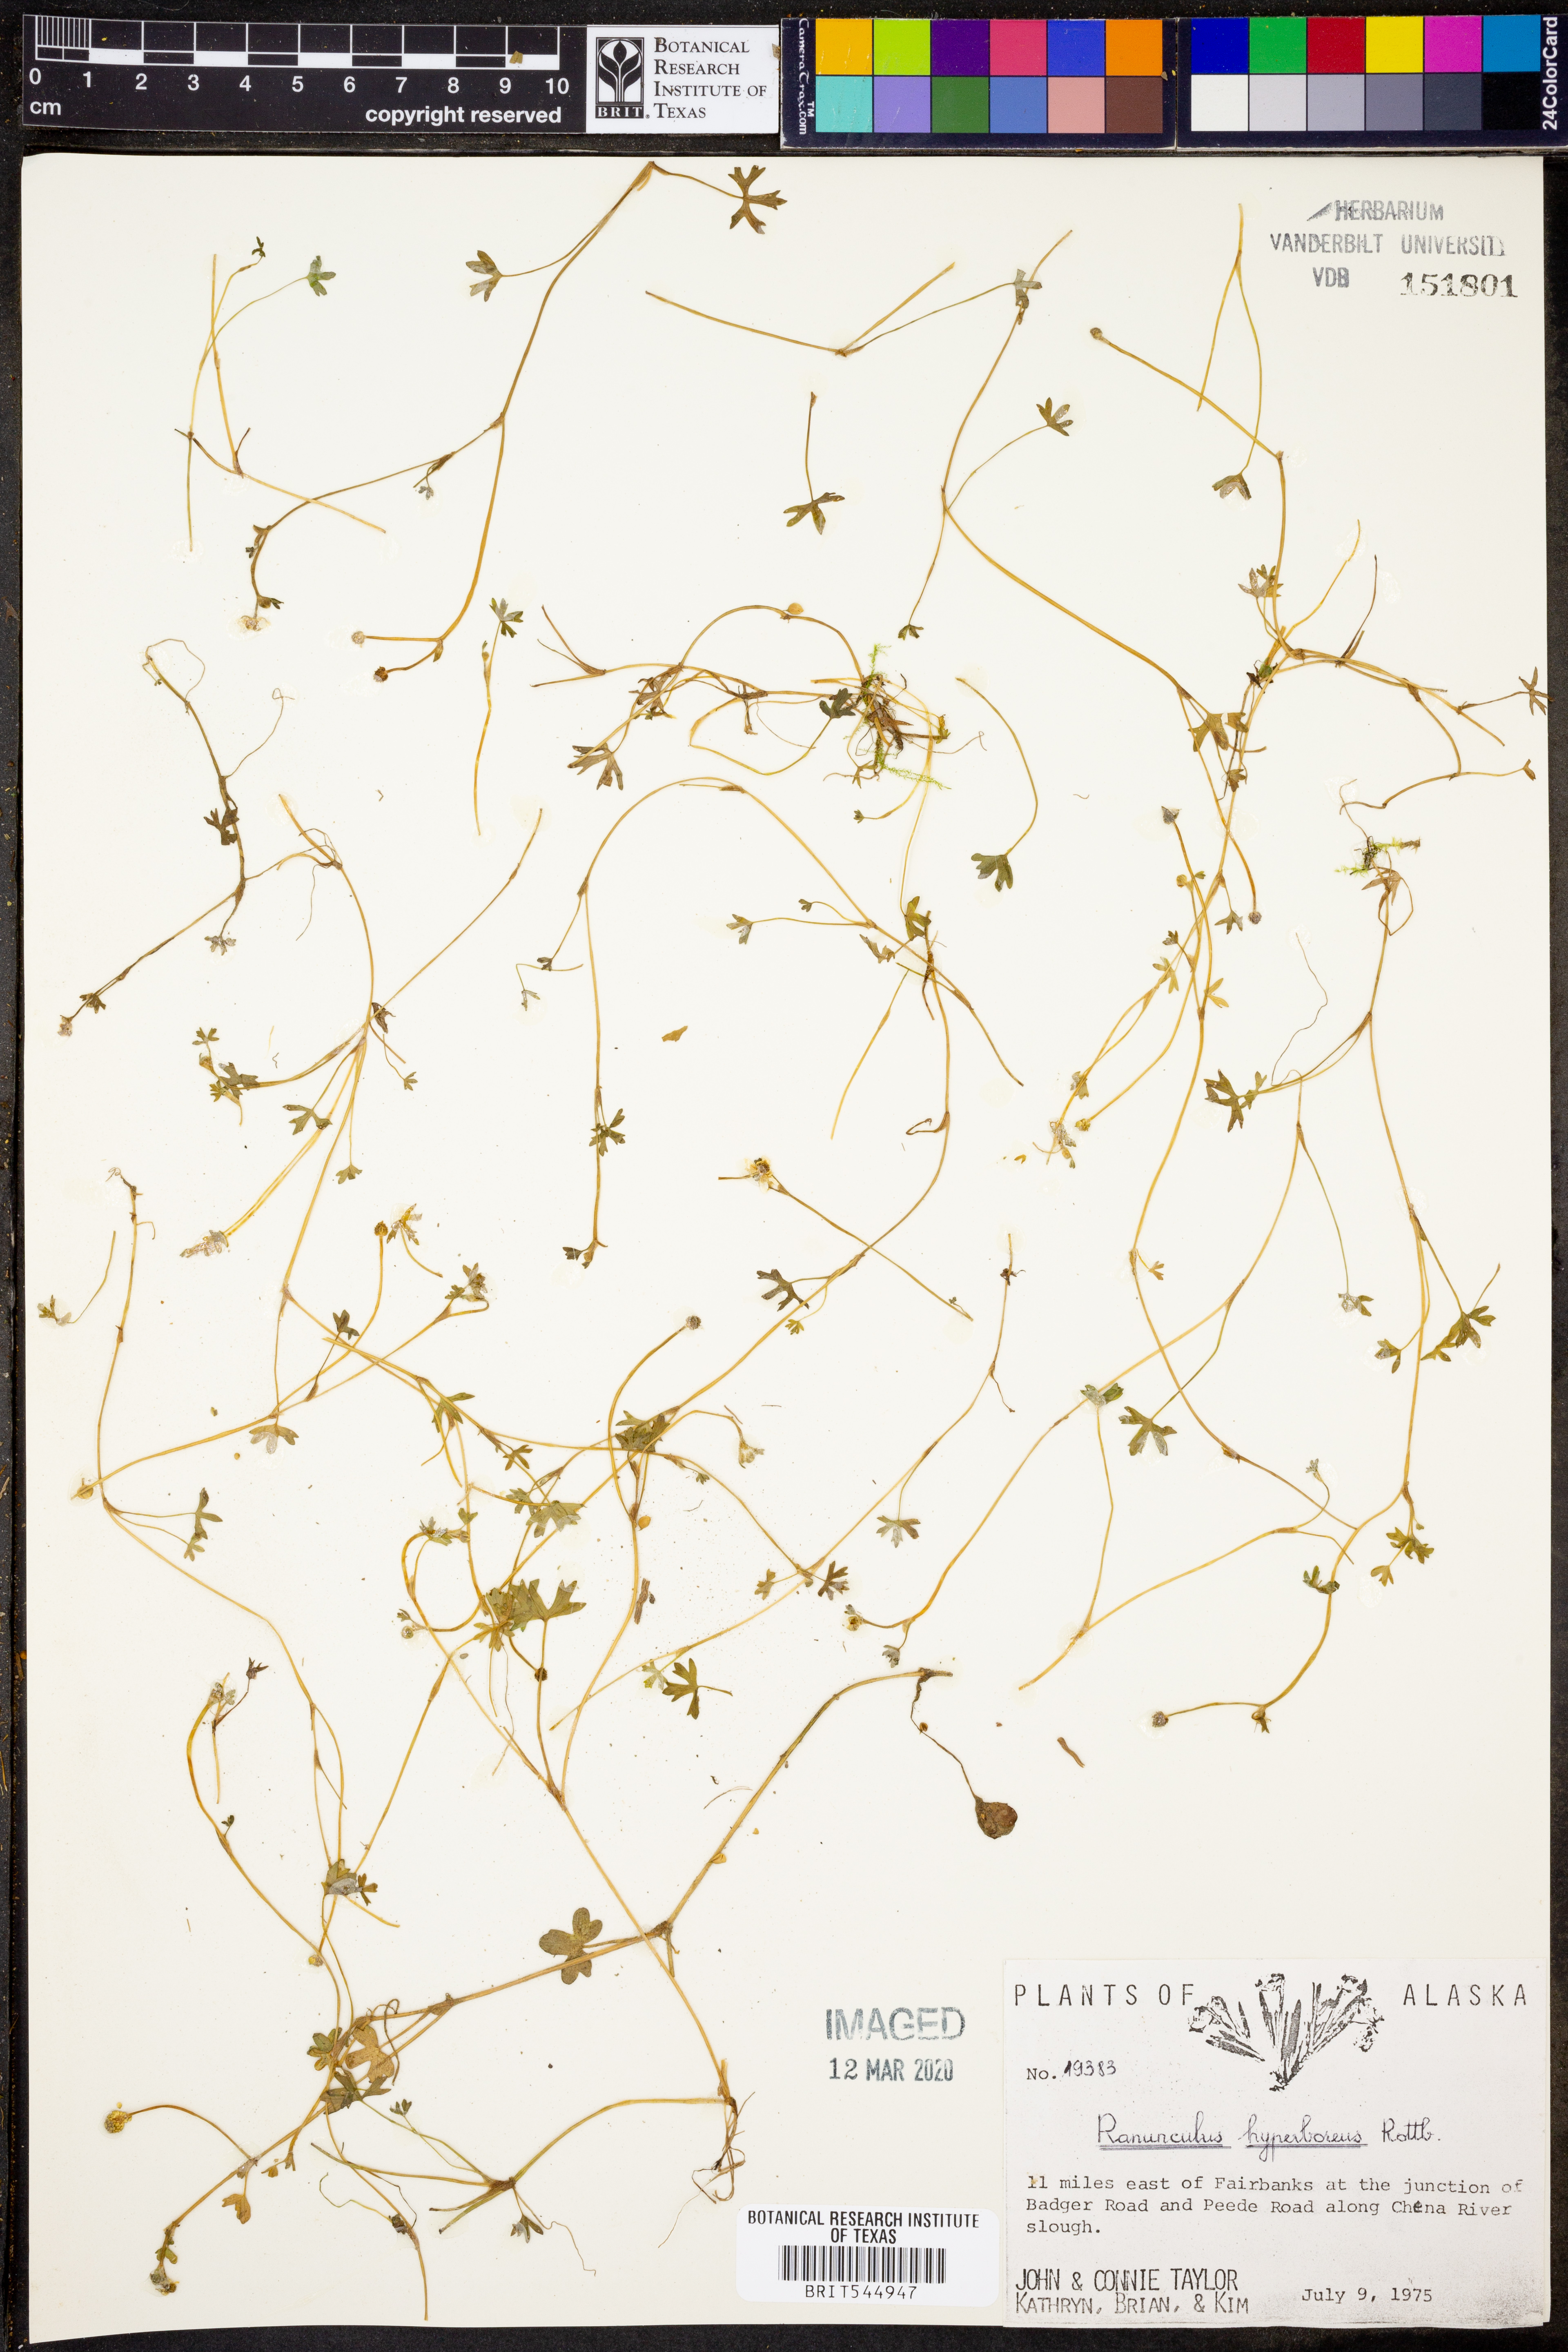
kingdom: Plantae
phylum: Tracheophyta
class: Magnoliopsida
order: Ranunculales
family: Ranunculaceae
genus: Ranunculus
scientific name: Ranunculus hyperboreus
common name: Arctic buttercup
